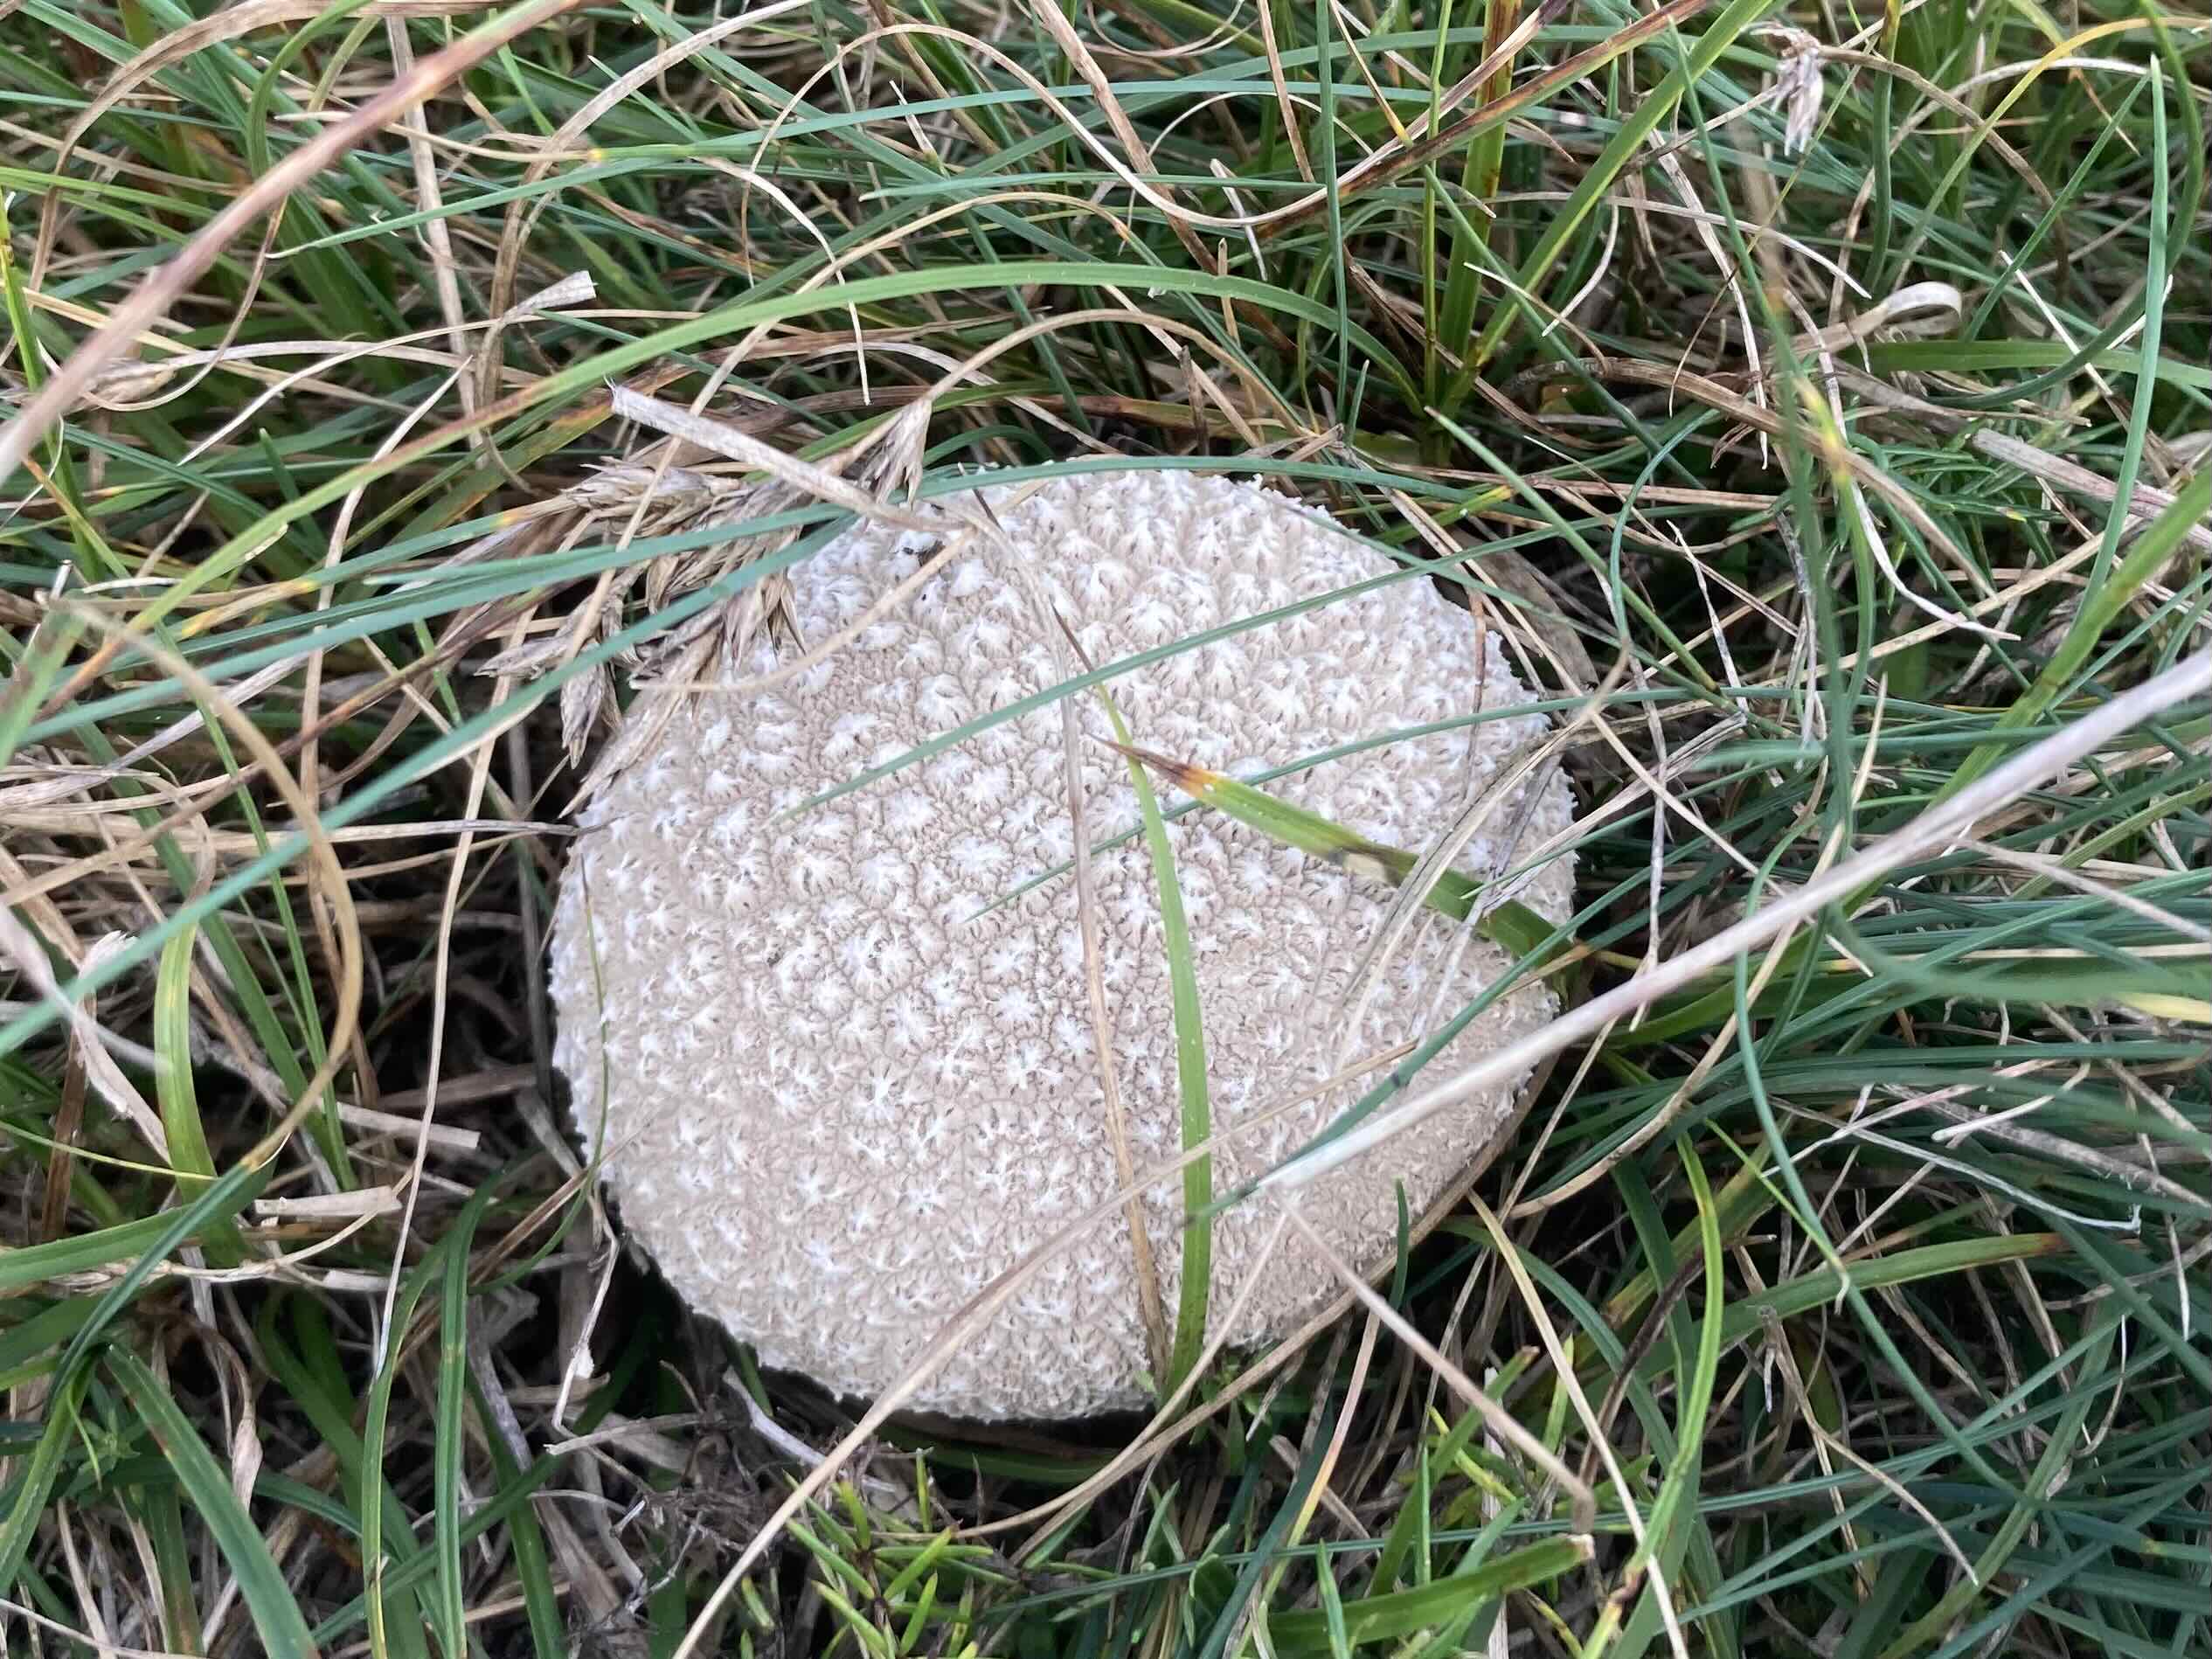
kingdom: Fungi
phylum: Basidiomycota
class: Agaricomycetes
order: Agaricales
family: Lycoperdaceae
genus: Bovistella
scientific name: Bovistella utriformis
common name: skællet støvbold
